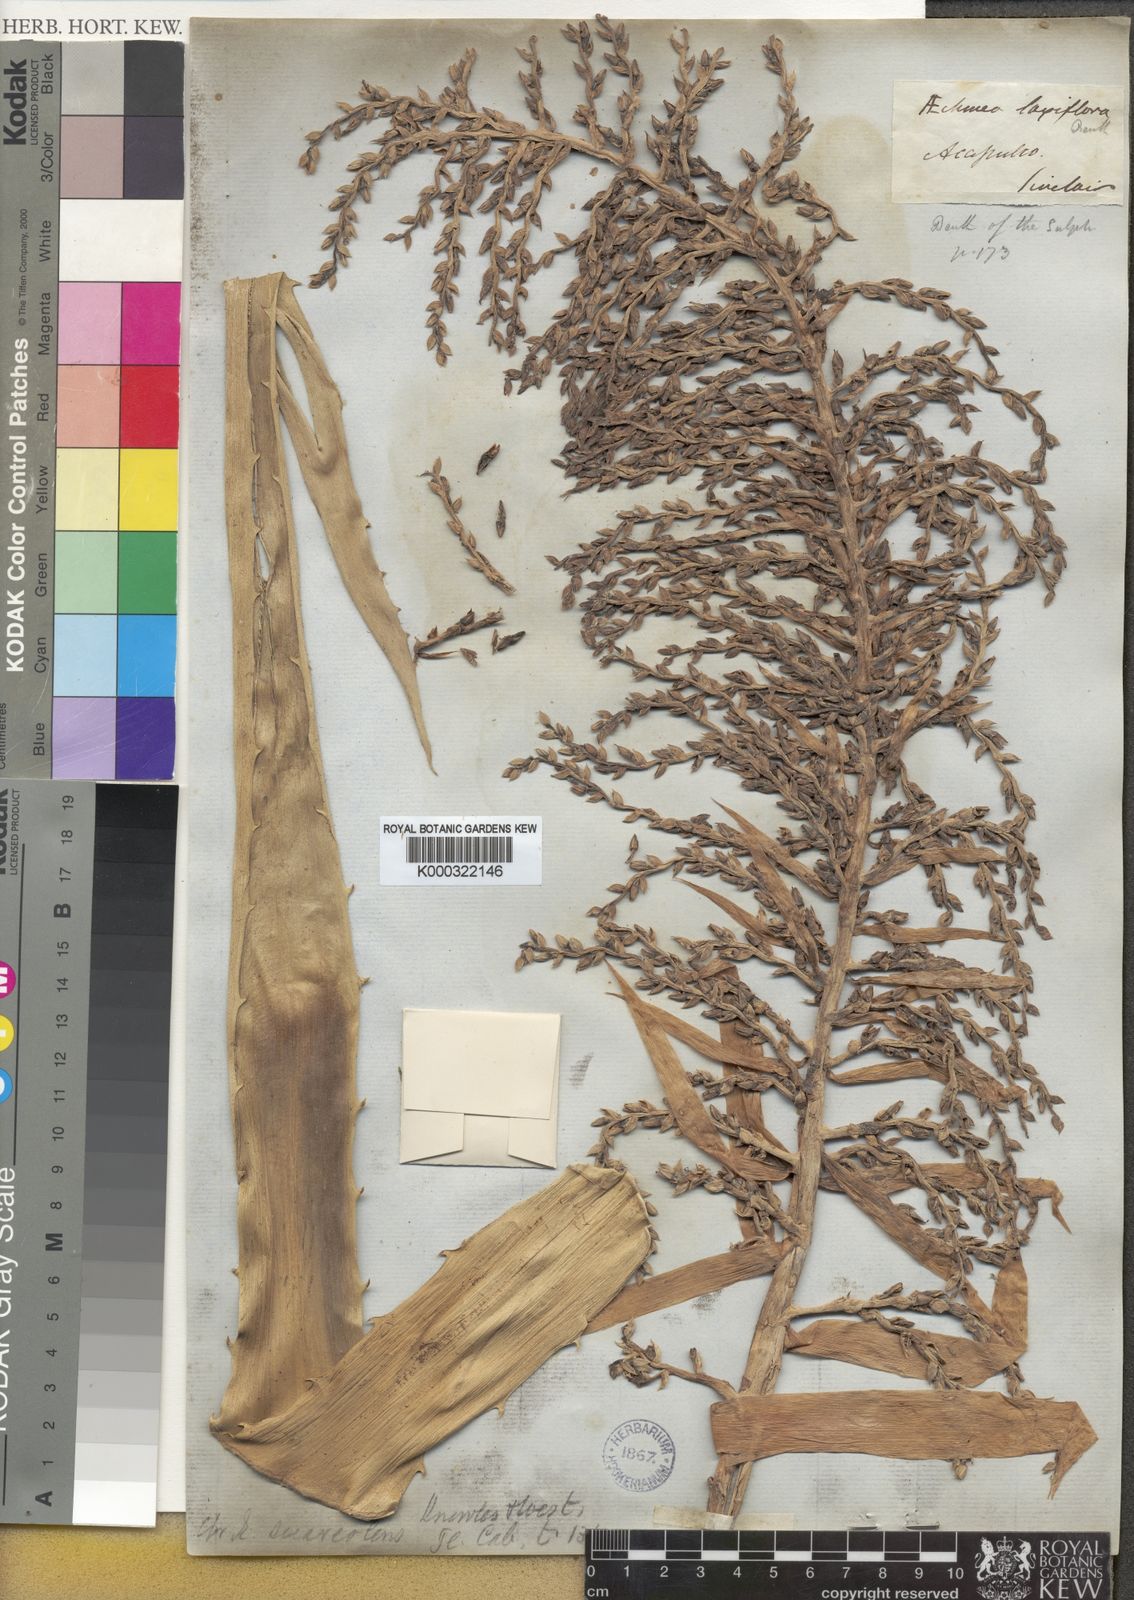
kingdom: Plantae
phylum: Tracheophyta
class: Liliopsida
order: Poales
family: Bromeliaceae
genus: Aechmea
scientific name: Aechmea bracteata
